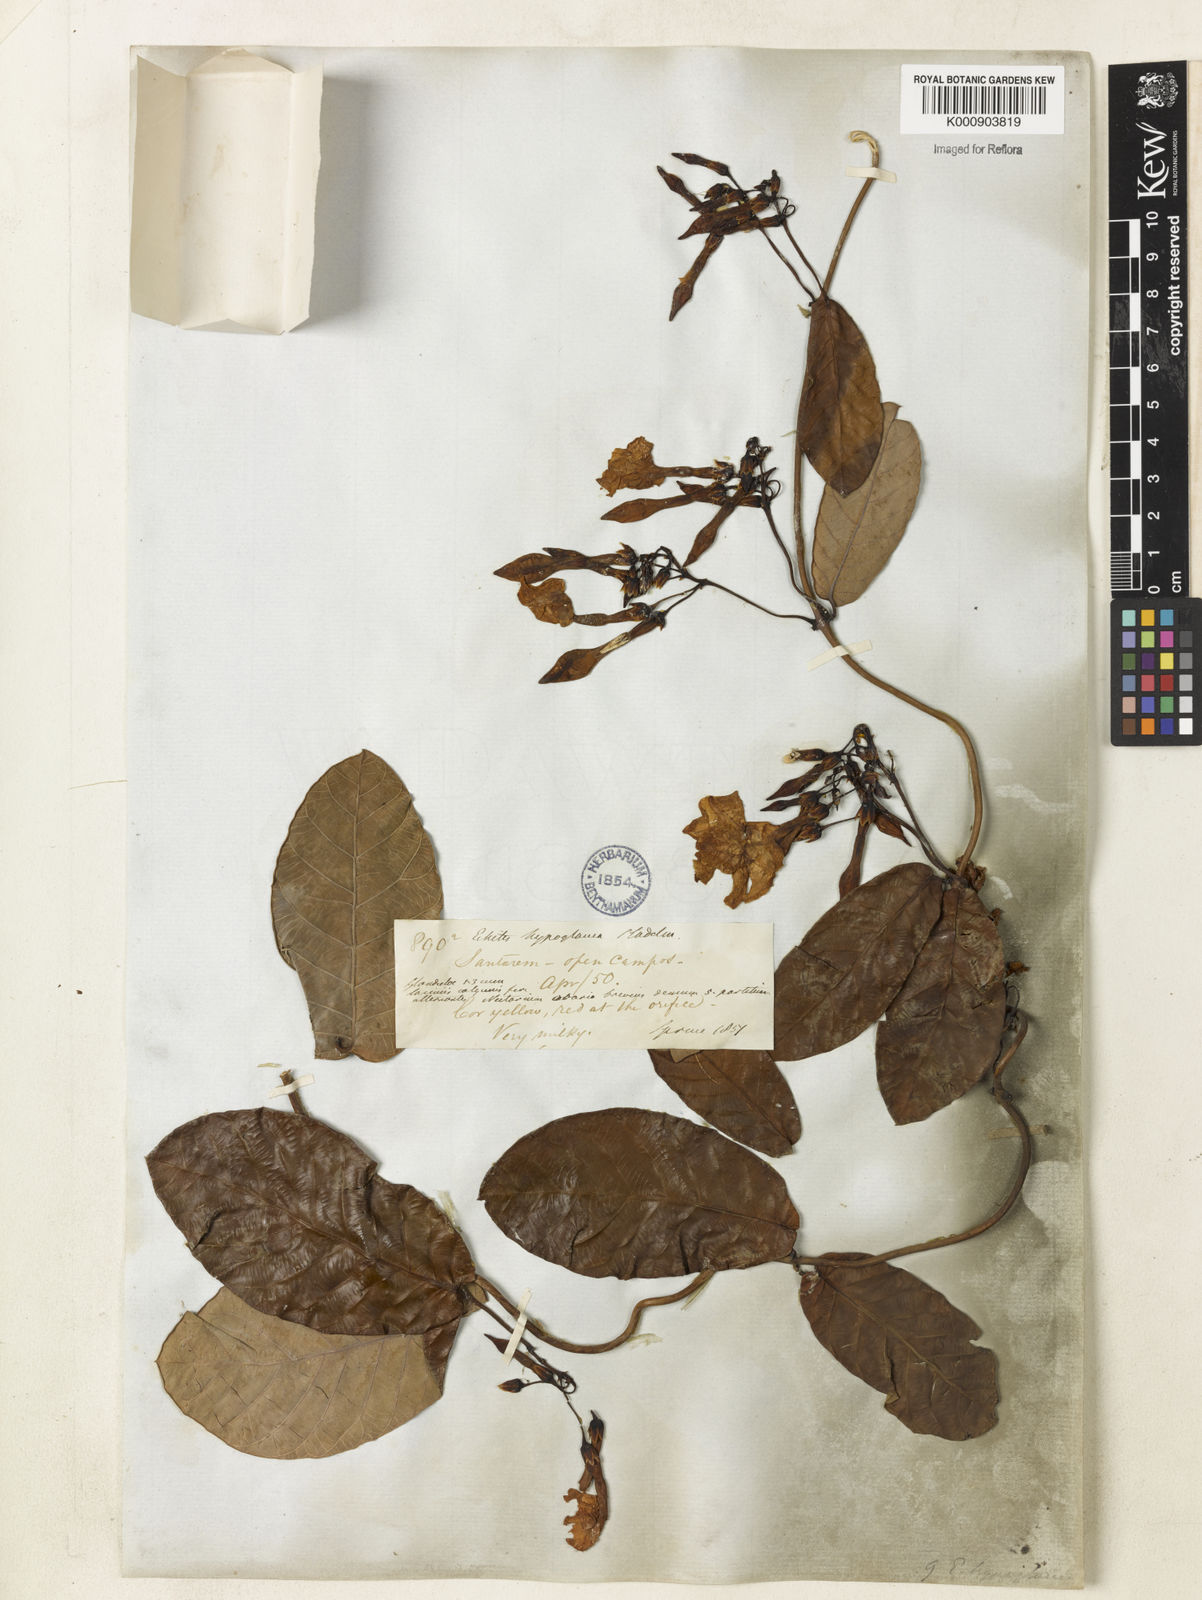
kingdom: Plantae
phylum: Tracheophyta
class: Magnoliopsida
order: Gentianales
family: Apocynaceae
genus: Odontadenia
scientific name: Odontadenia
